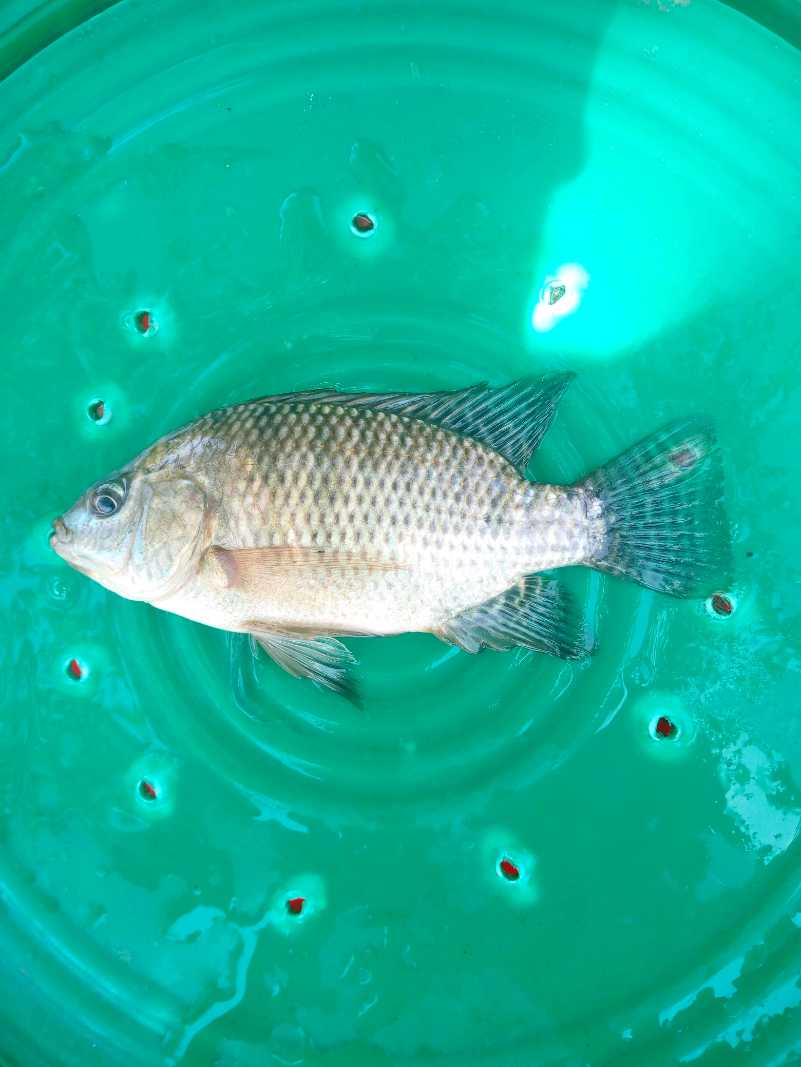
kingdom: Animalia
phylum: Chordata
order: Perciformes
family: Cichlidae
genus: Oreochromis
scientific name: Oreochromis spilurus
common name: Sabaki tilapia
